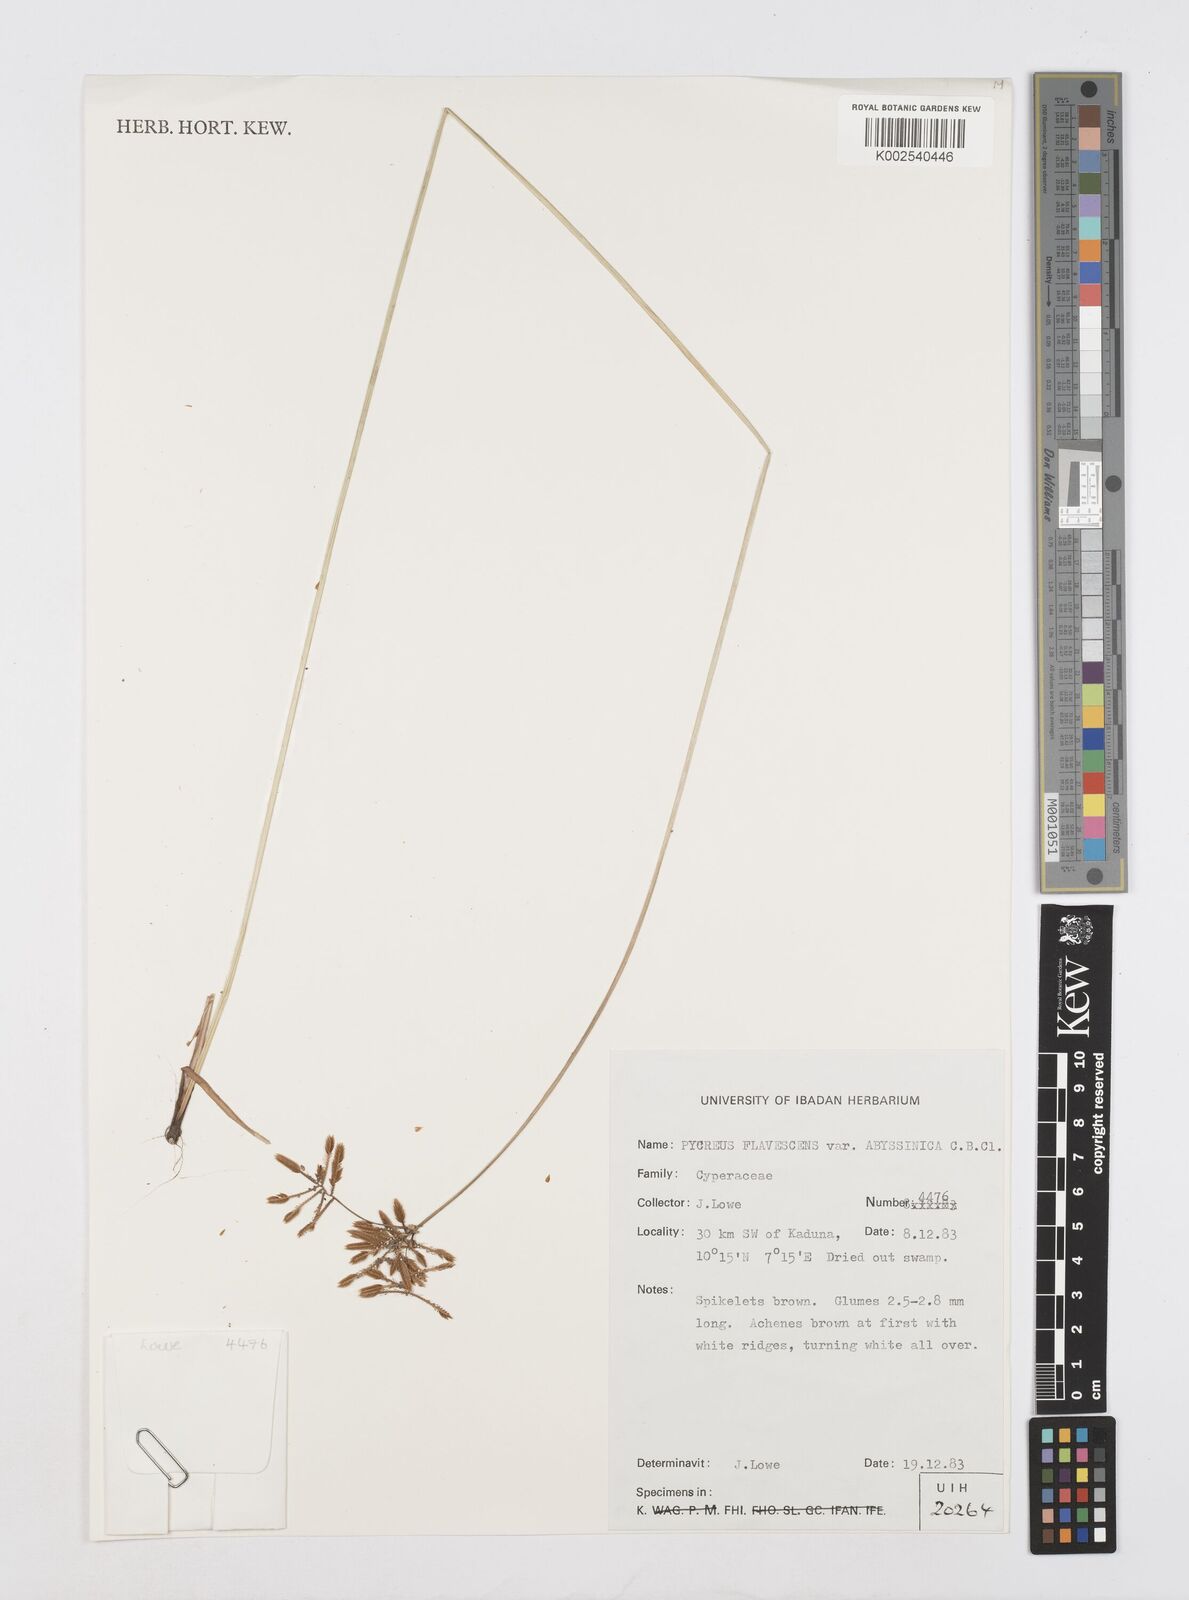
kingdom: Plantae
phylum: Tracheophyta
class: Liliopsida
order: Poales
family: Cyperaceae
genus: Cyperus
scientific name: Cyperus flavescens
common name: Yellow galingale
